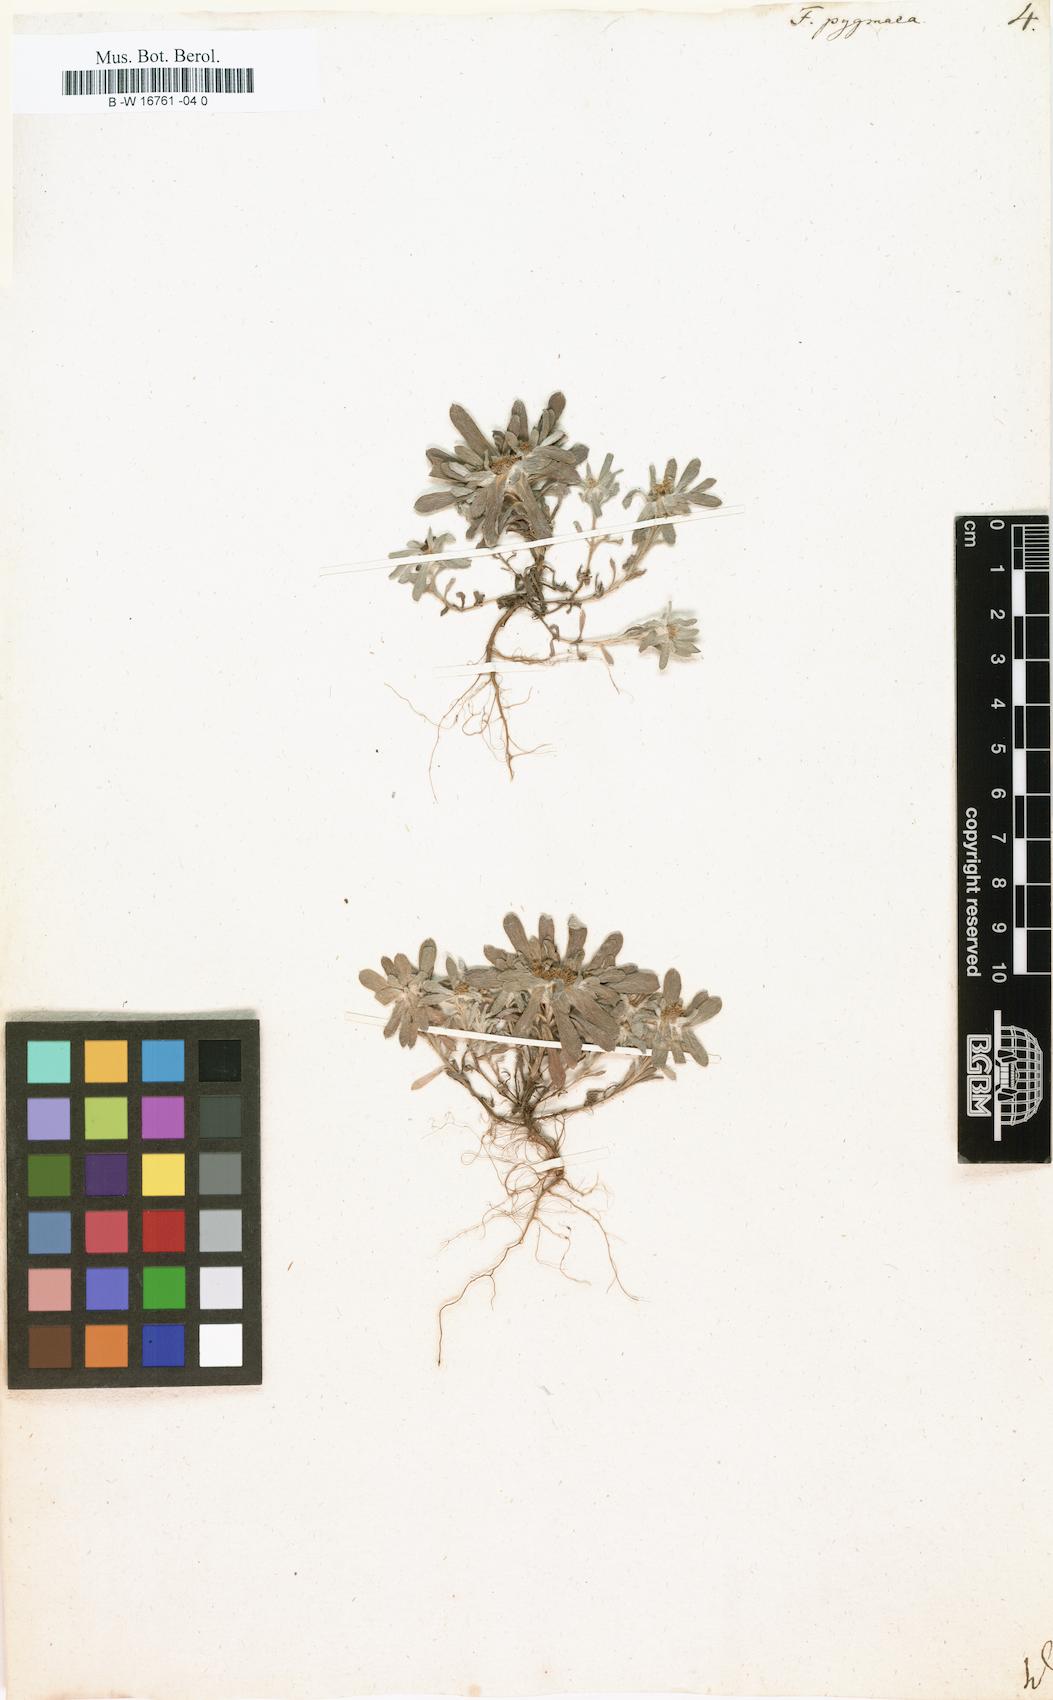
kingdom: Plantae
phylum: Tracheophyta
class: Magnoliopsida
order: Asterales
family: Asteraceae
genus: Filago
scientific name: Filago pygmaea
